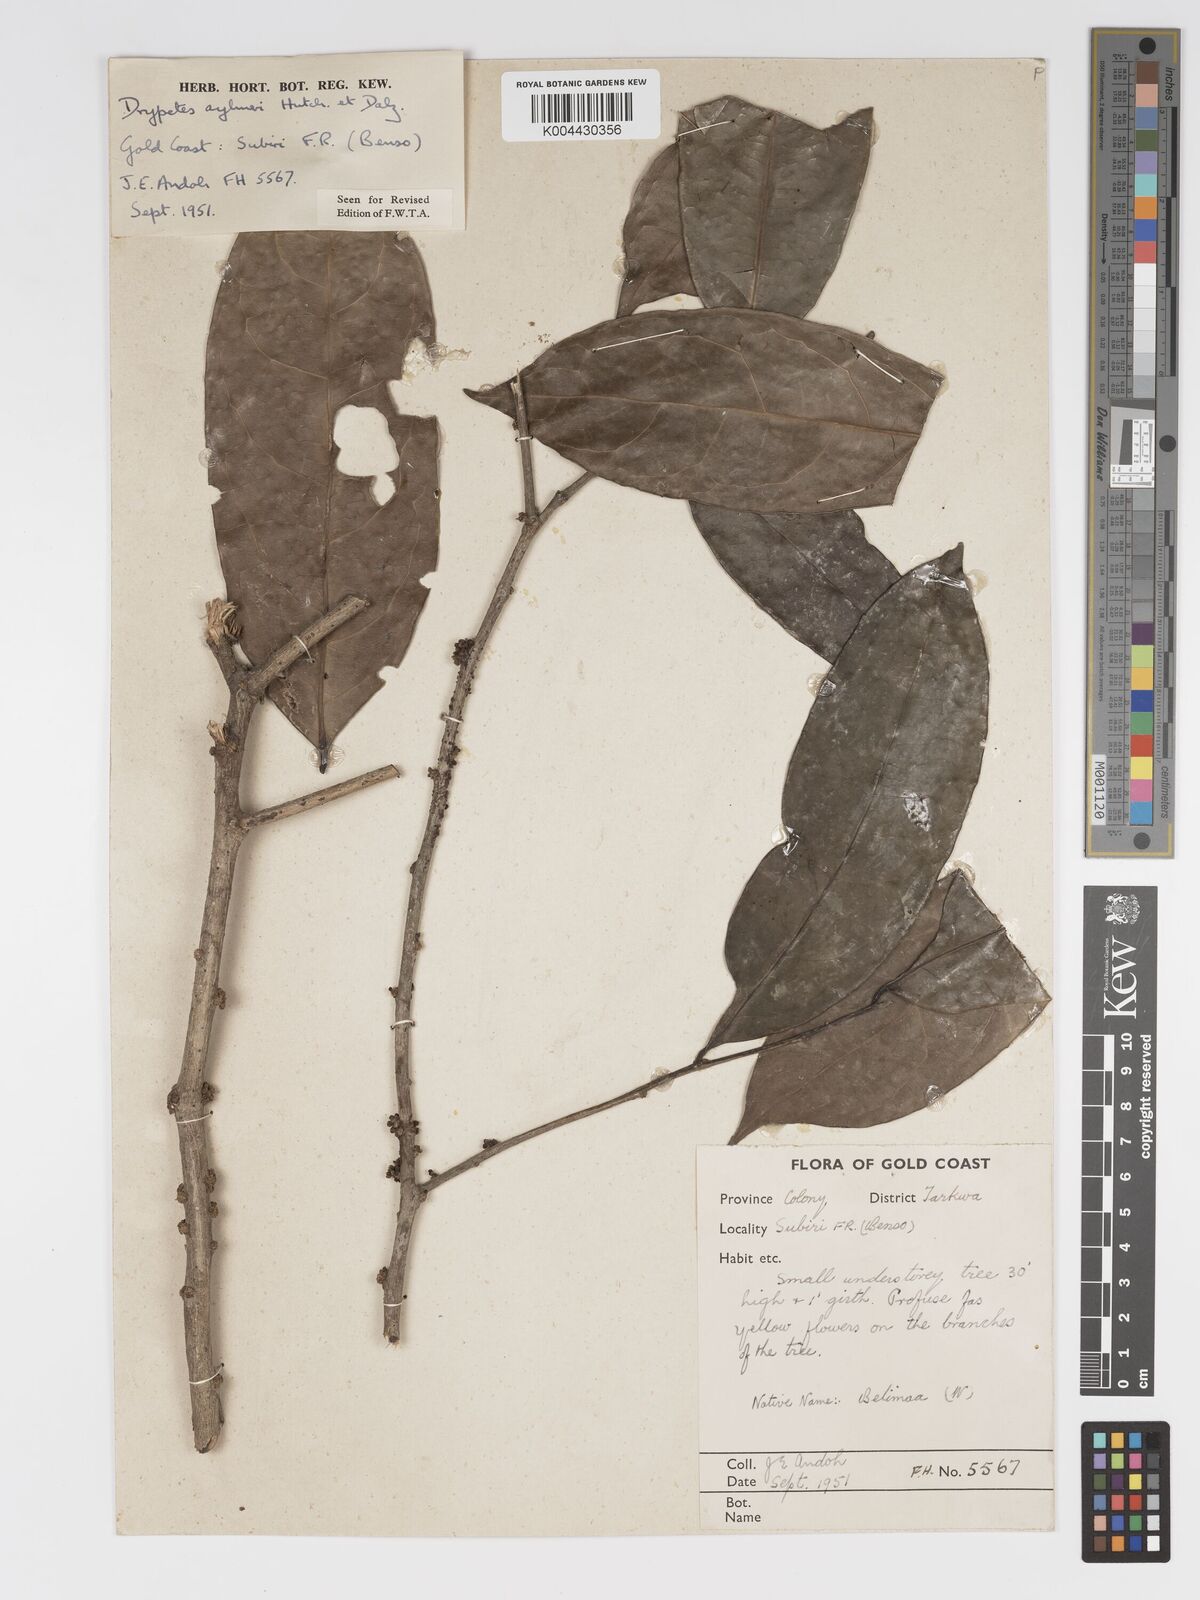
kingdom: Plantae
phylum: Tracheophyta
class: Magnoliopsida
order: Malpighiales
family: Putranjivaceae
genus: Drypetes
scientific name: Drypetes aylmeri
